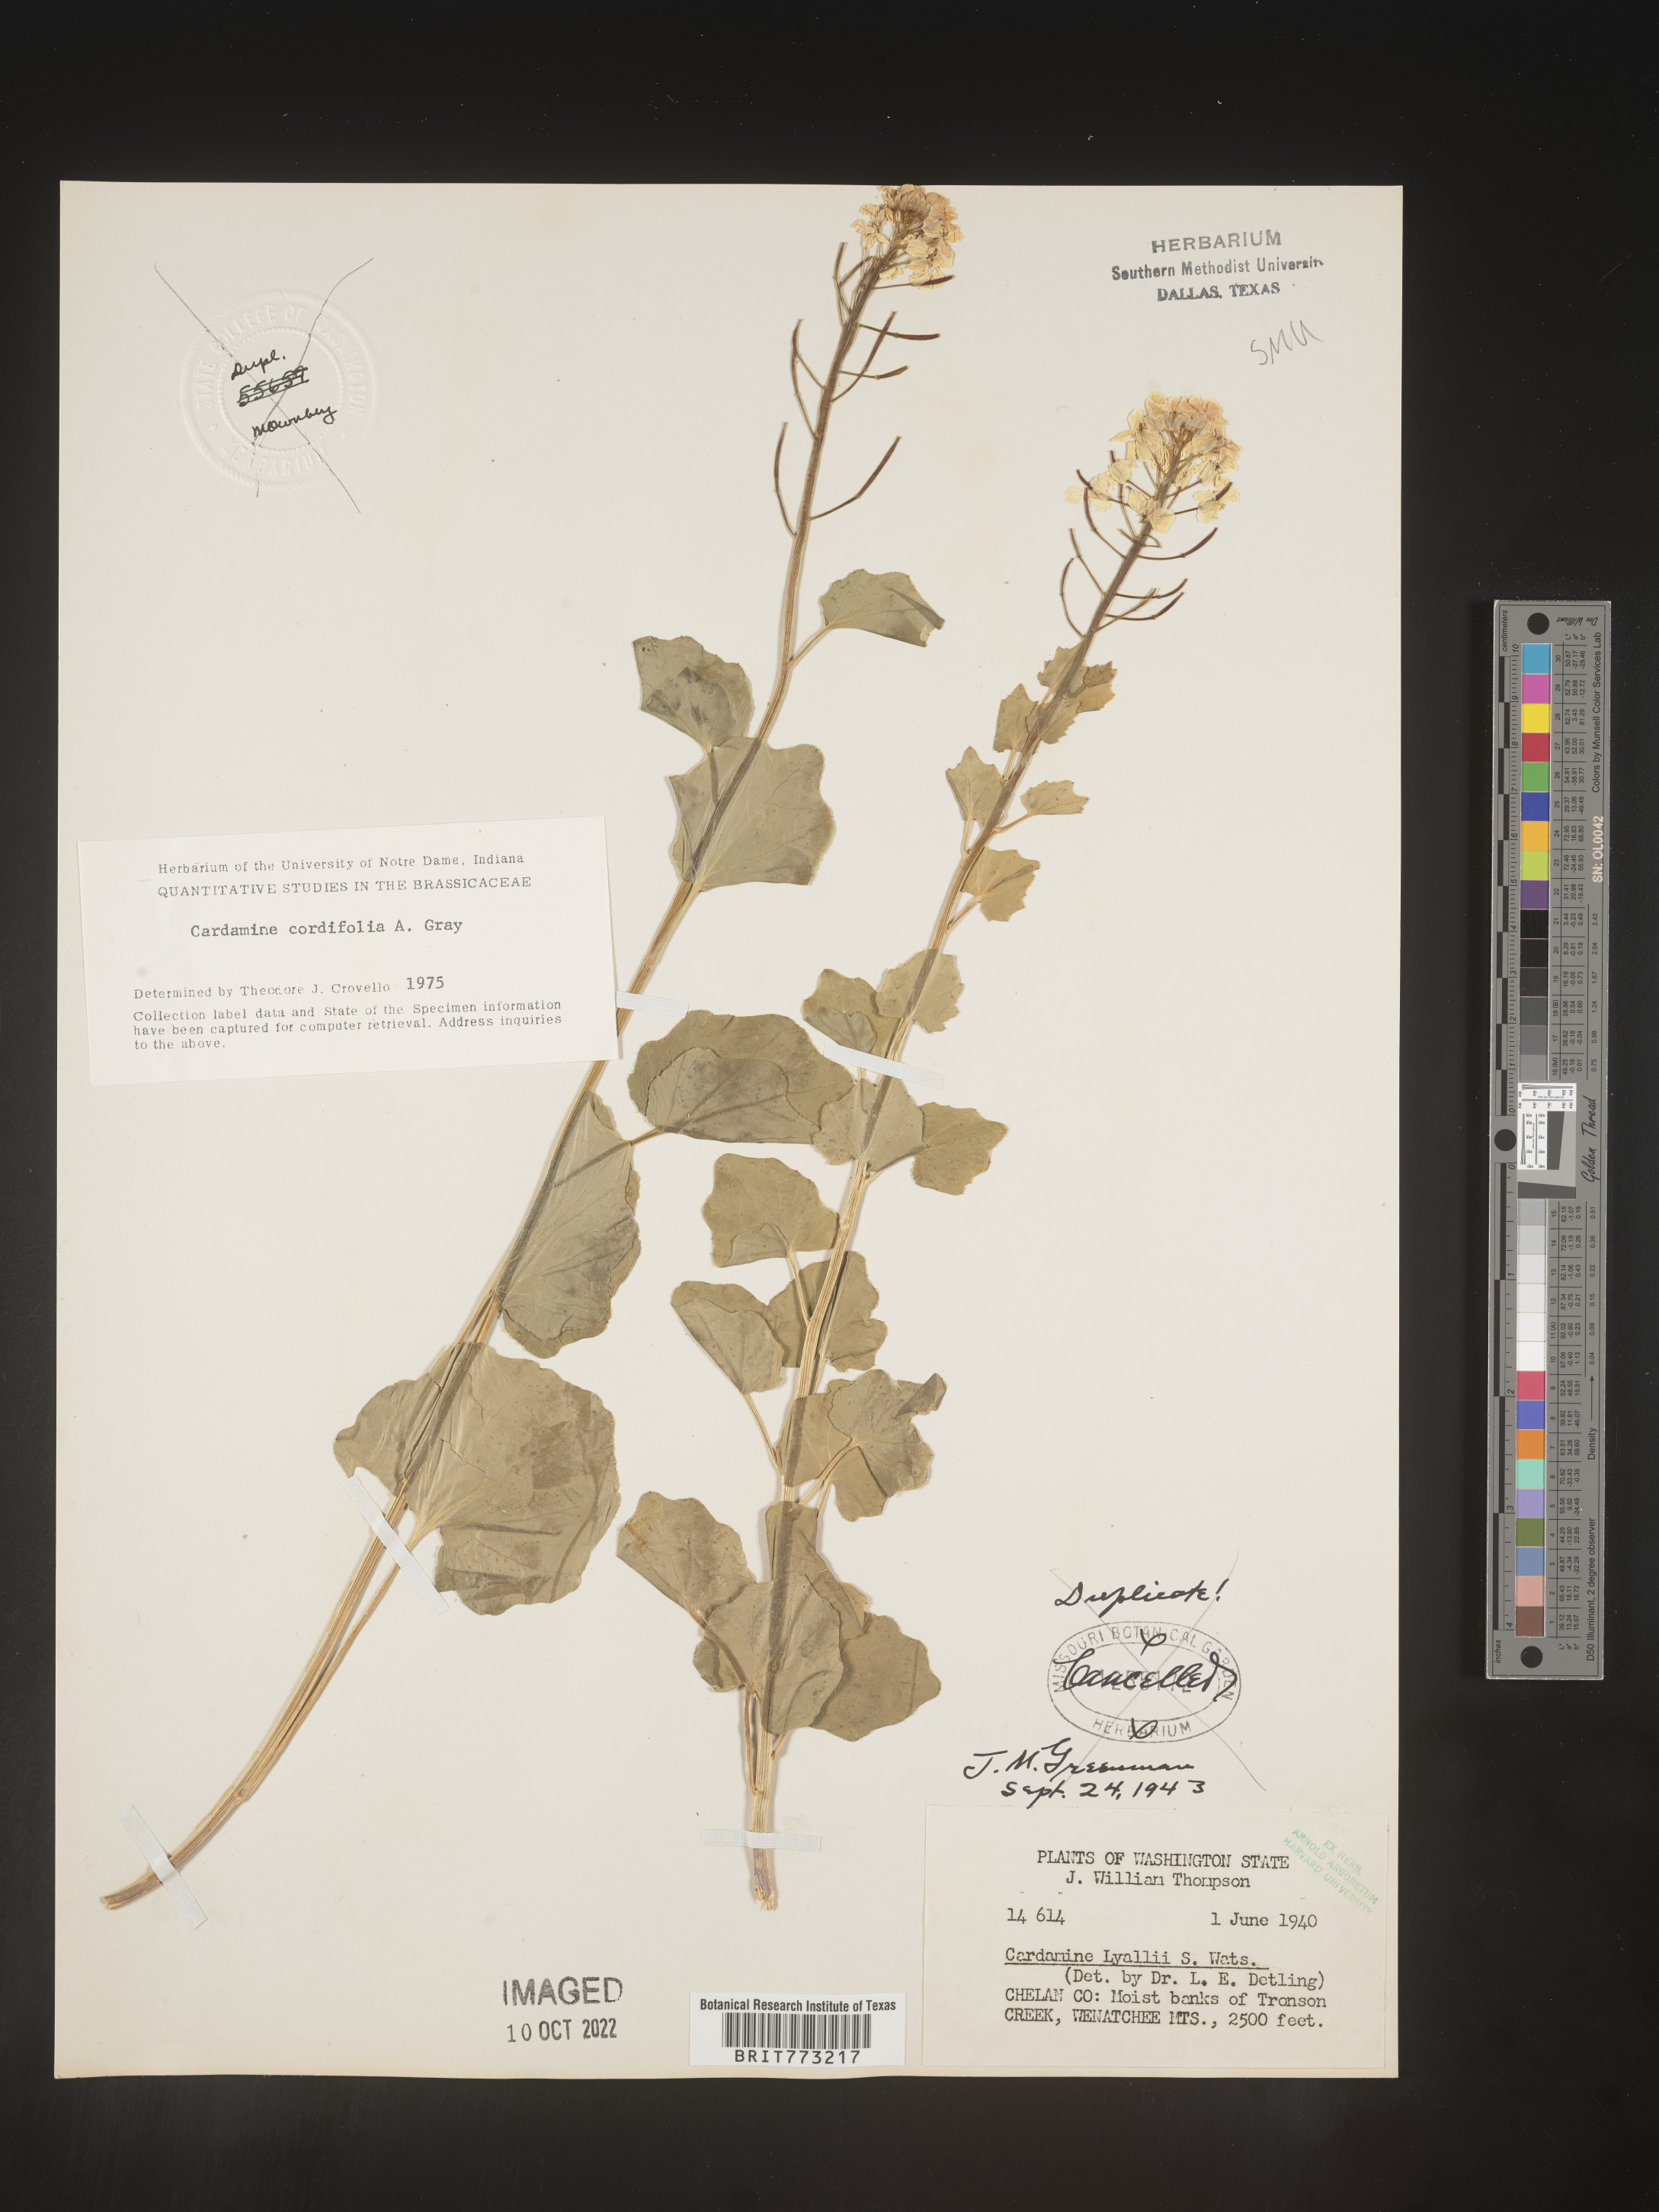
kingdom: Plantae
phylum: Tracheophyta
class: Magnoliopsida
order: Brassicales
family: Brassicaceae
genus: Cardamine
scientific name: Cardamine
